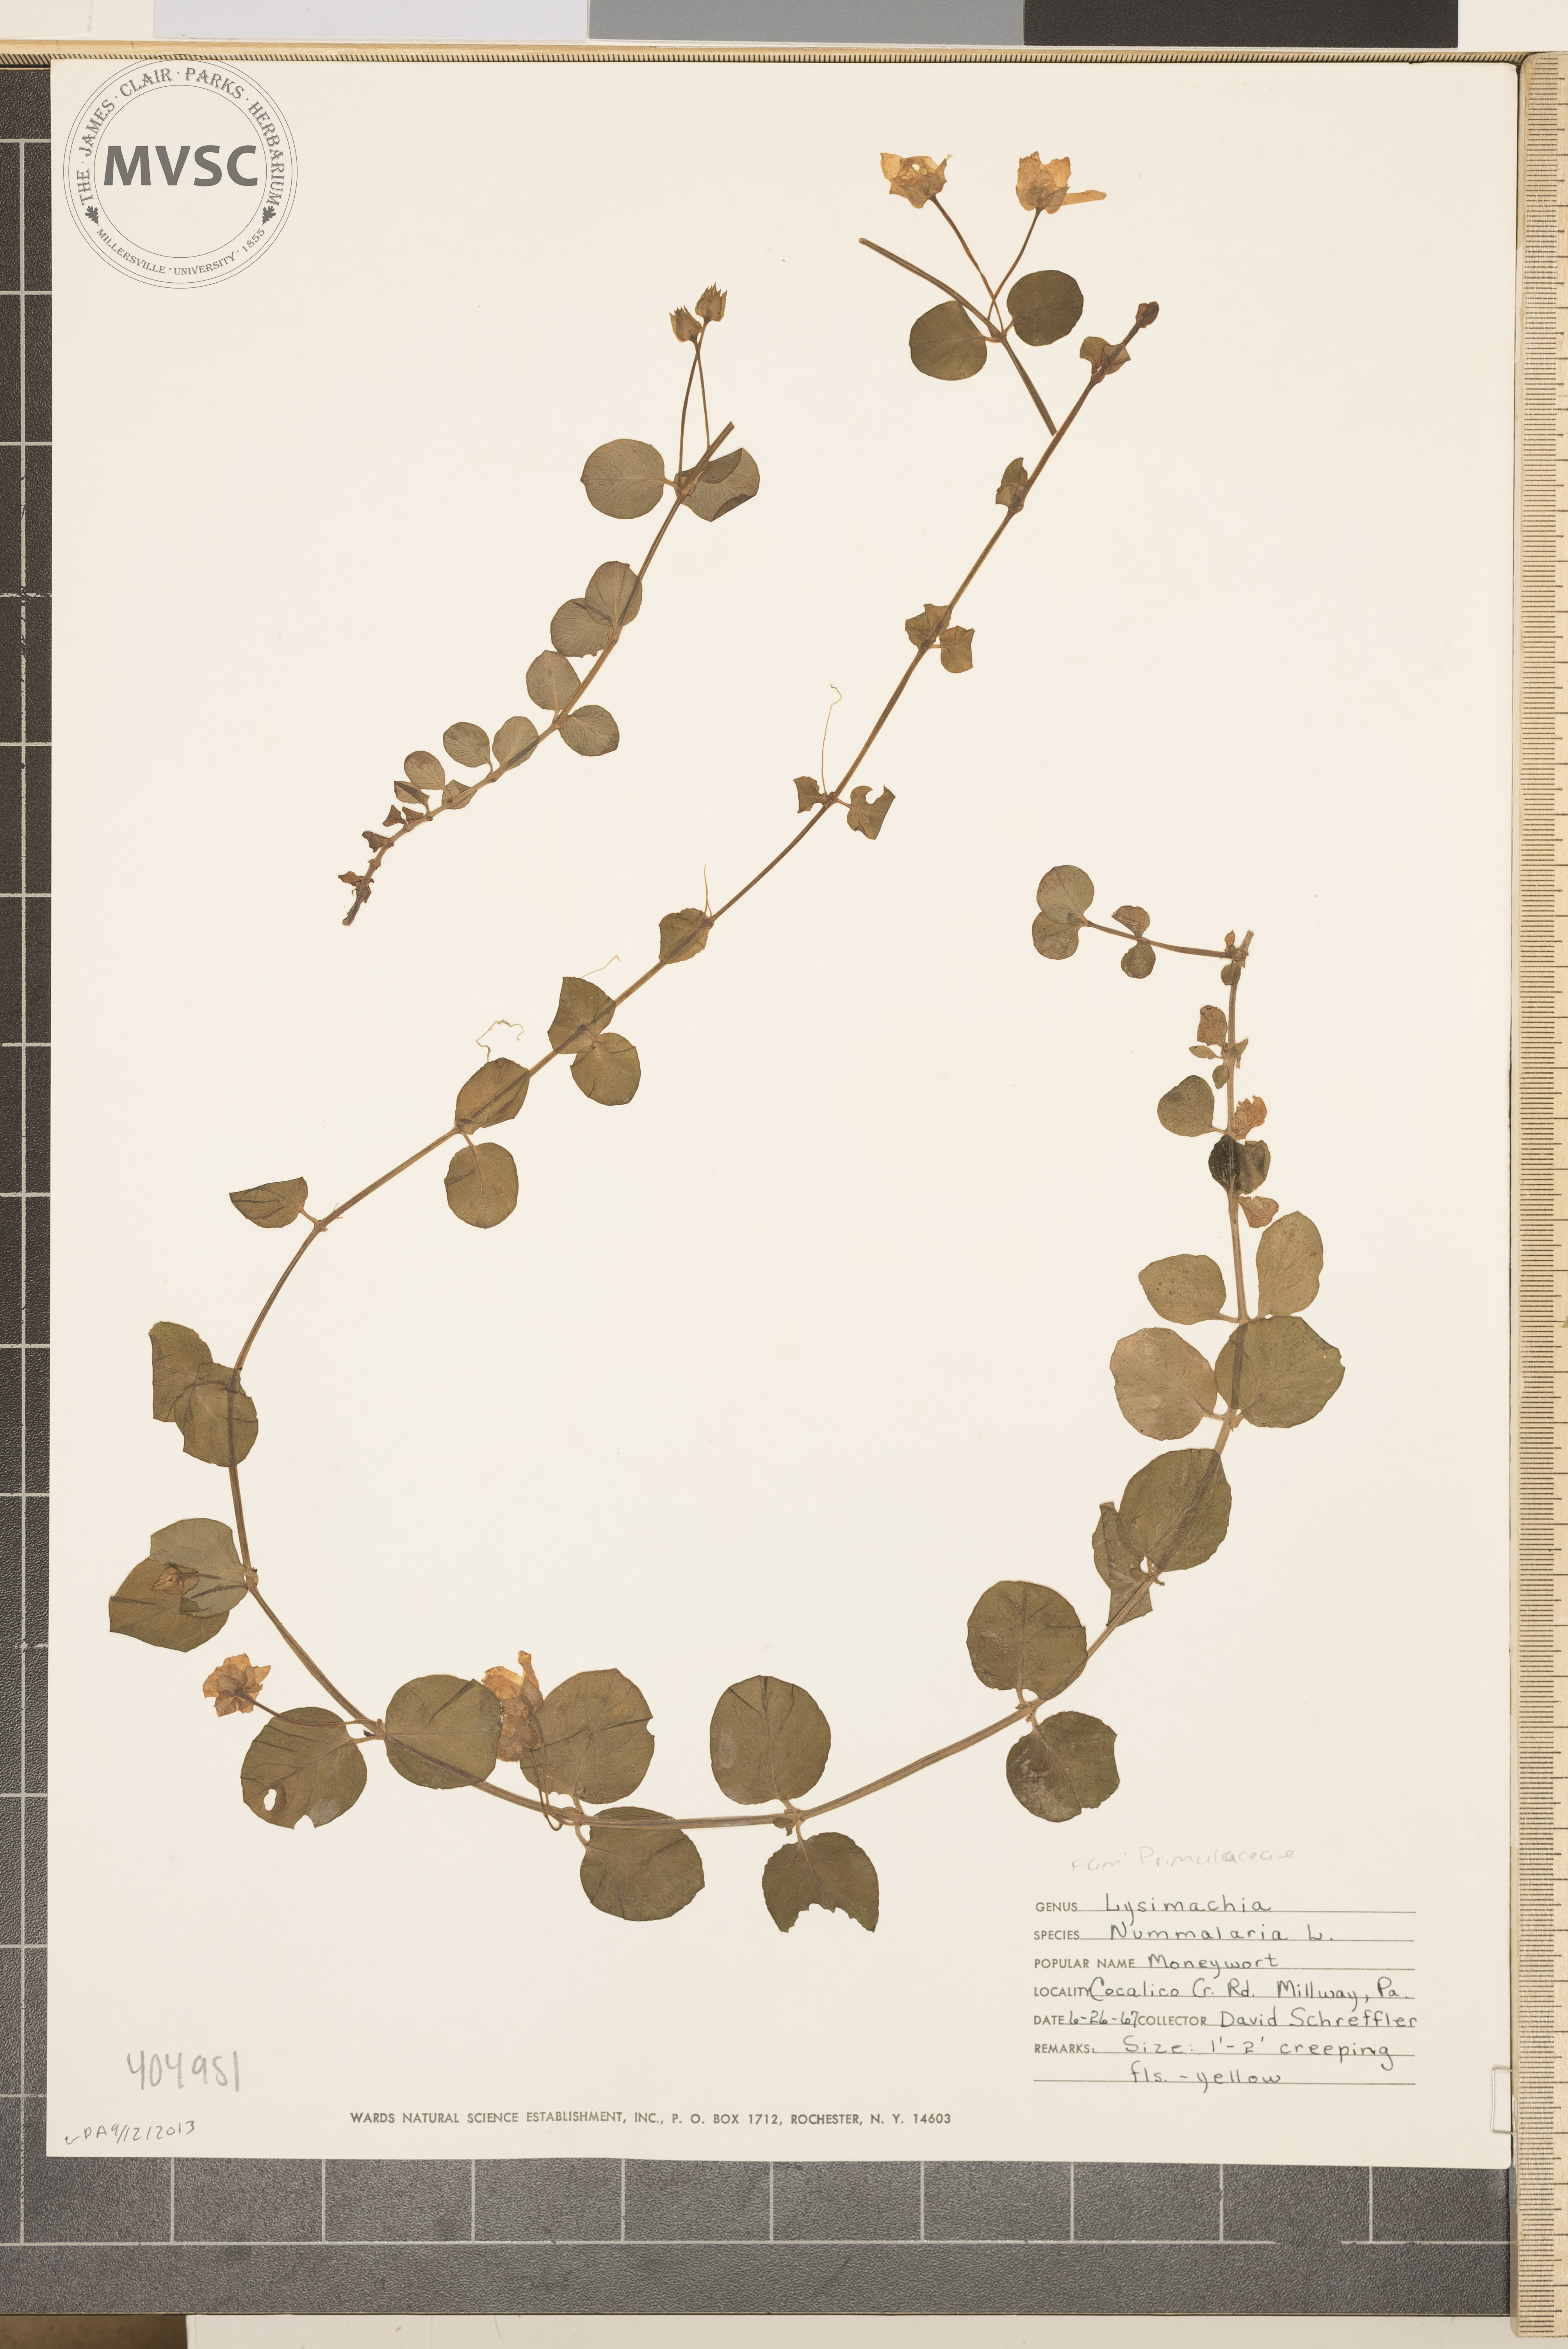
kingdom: Plantae
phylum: Tracheophyta
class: Magnoliopsida
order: Ericales
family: Primulaceae
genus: Lysimachia
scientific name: Lysimachia nummularia
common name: Moneywort
